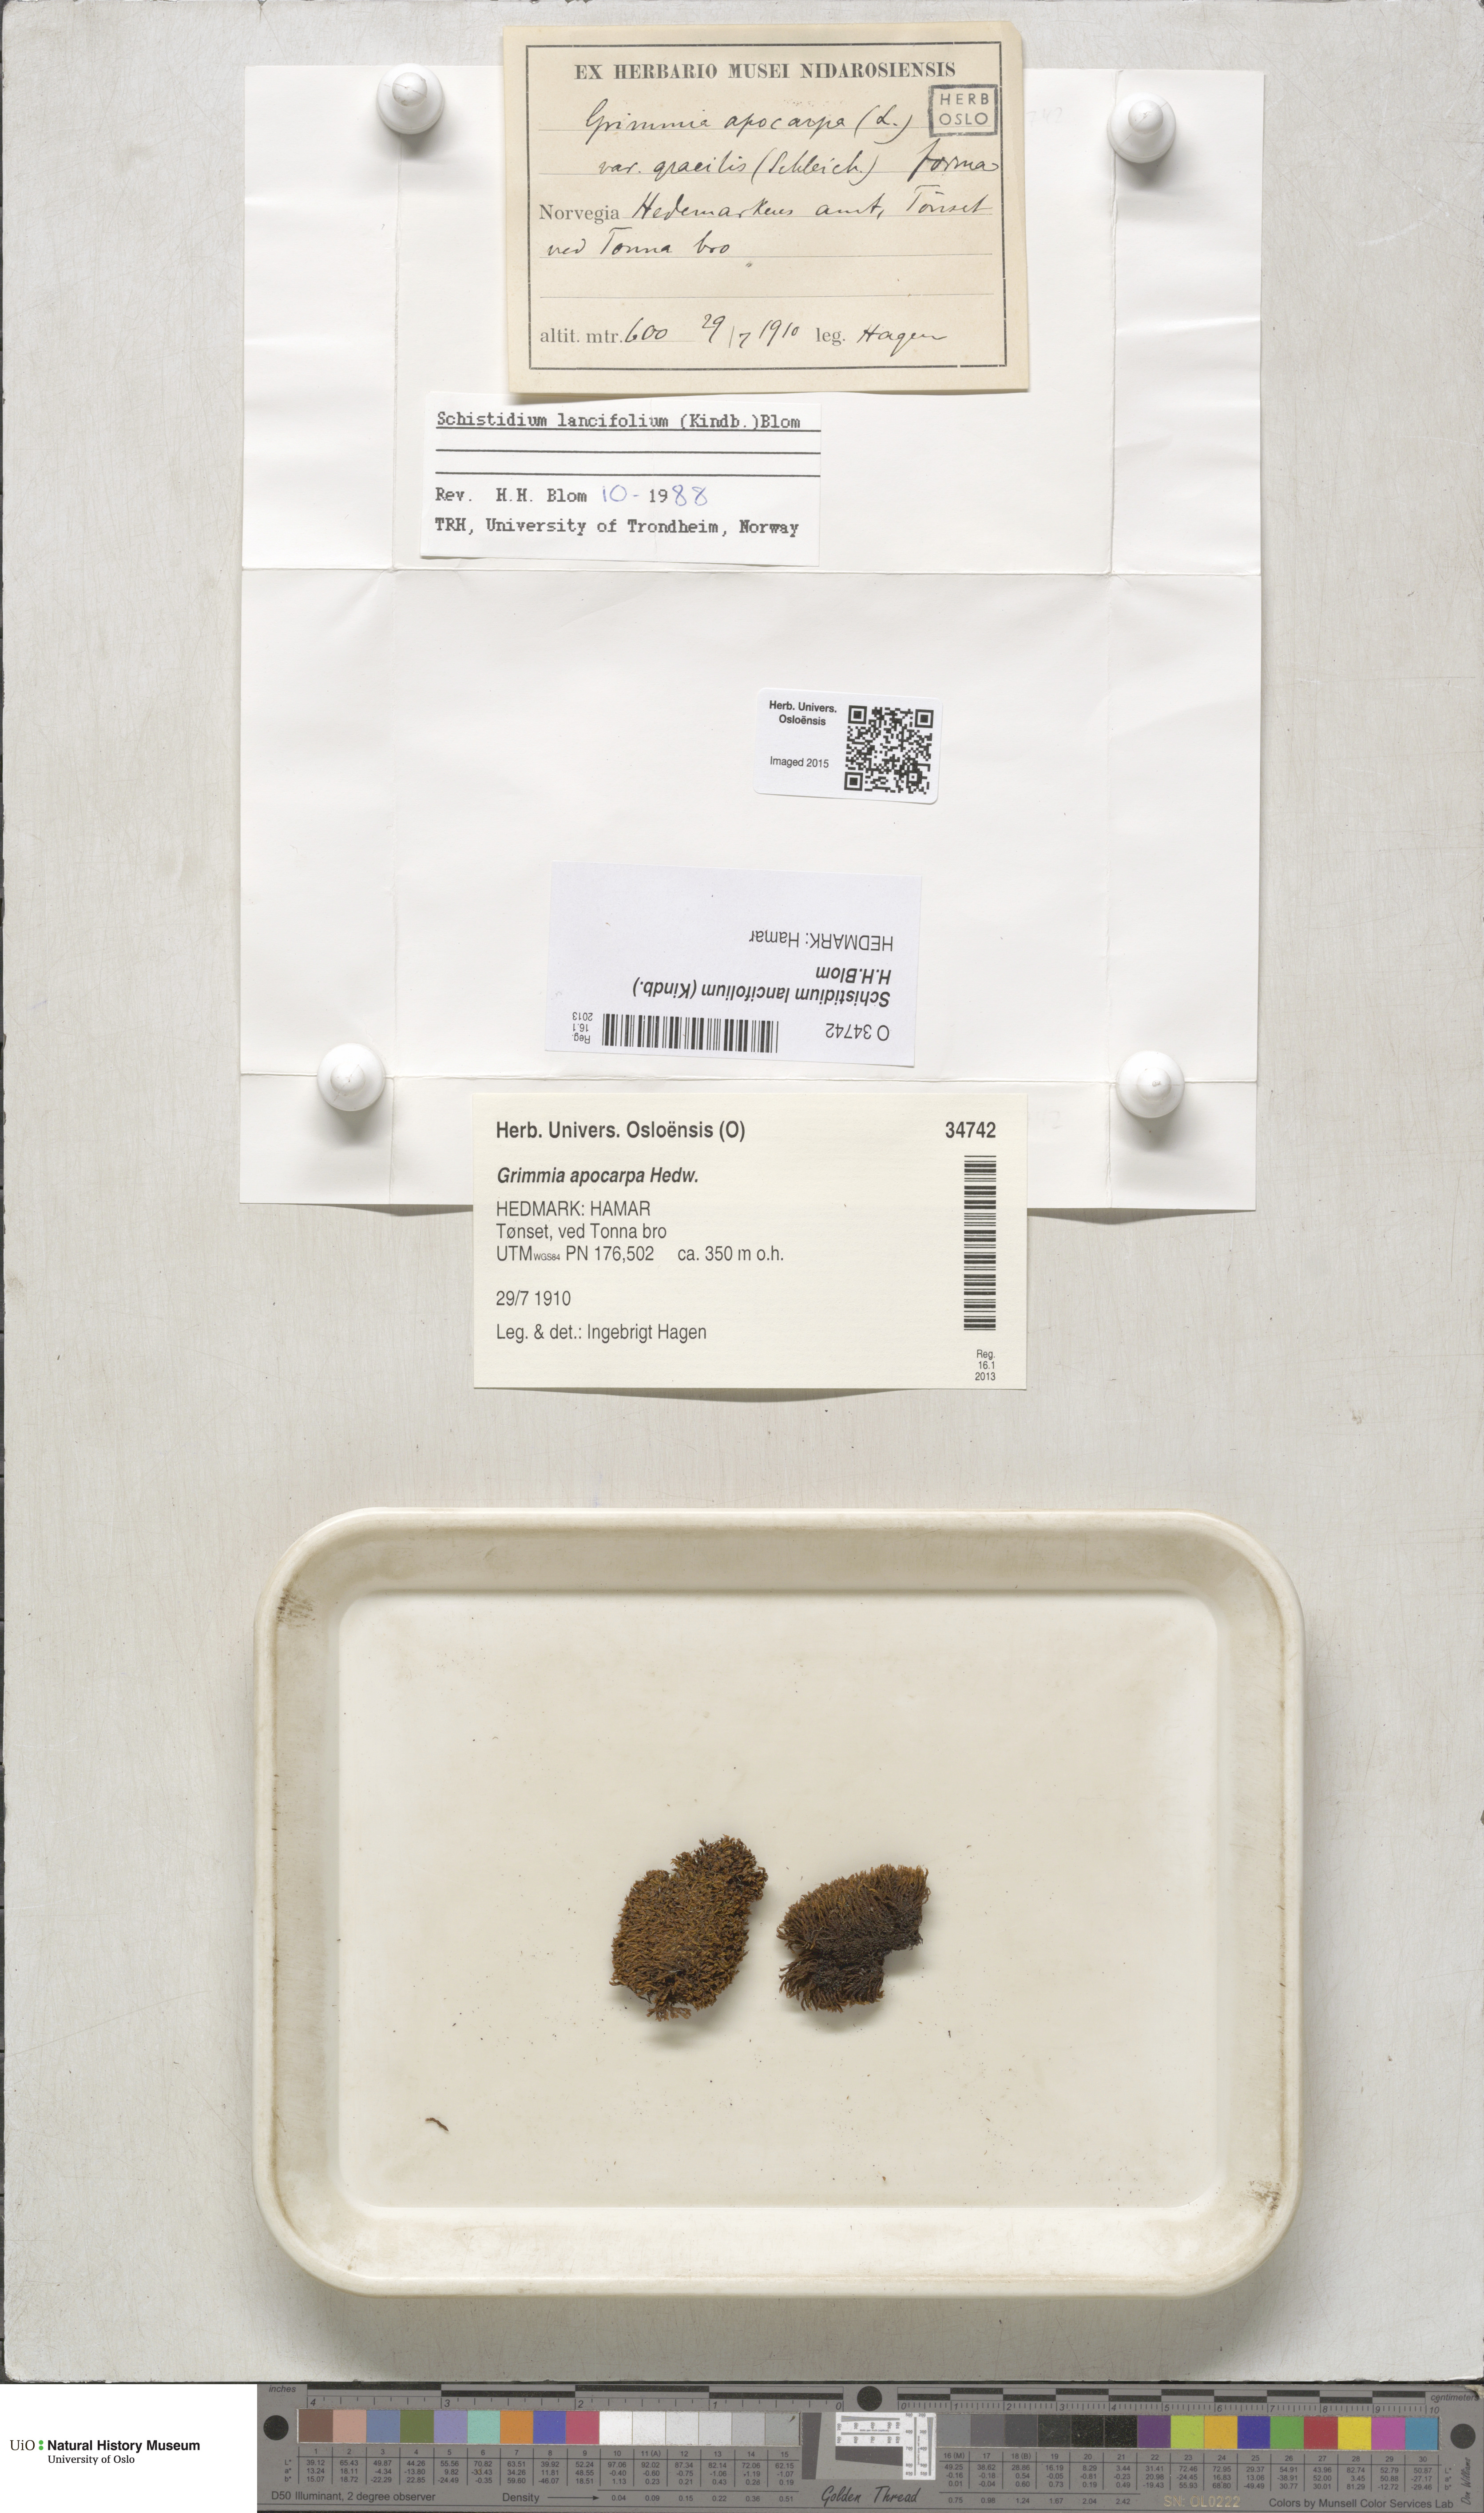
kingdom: Plantae
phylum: Bryophyta
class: Bryopsida
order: Grimmiales
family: Grimmiaceae
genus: Schistidium
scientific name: Schistidium lancifolium
